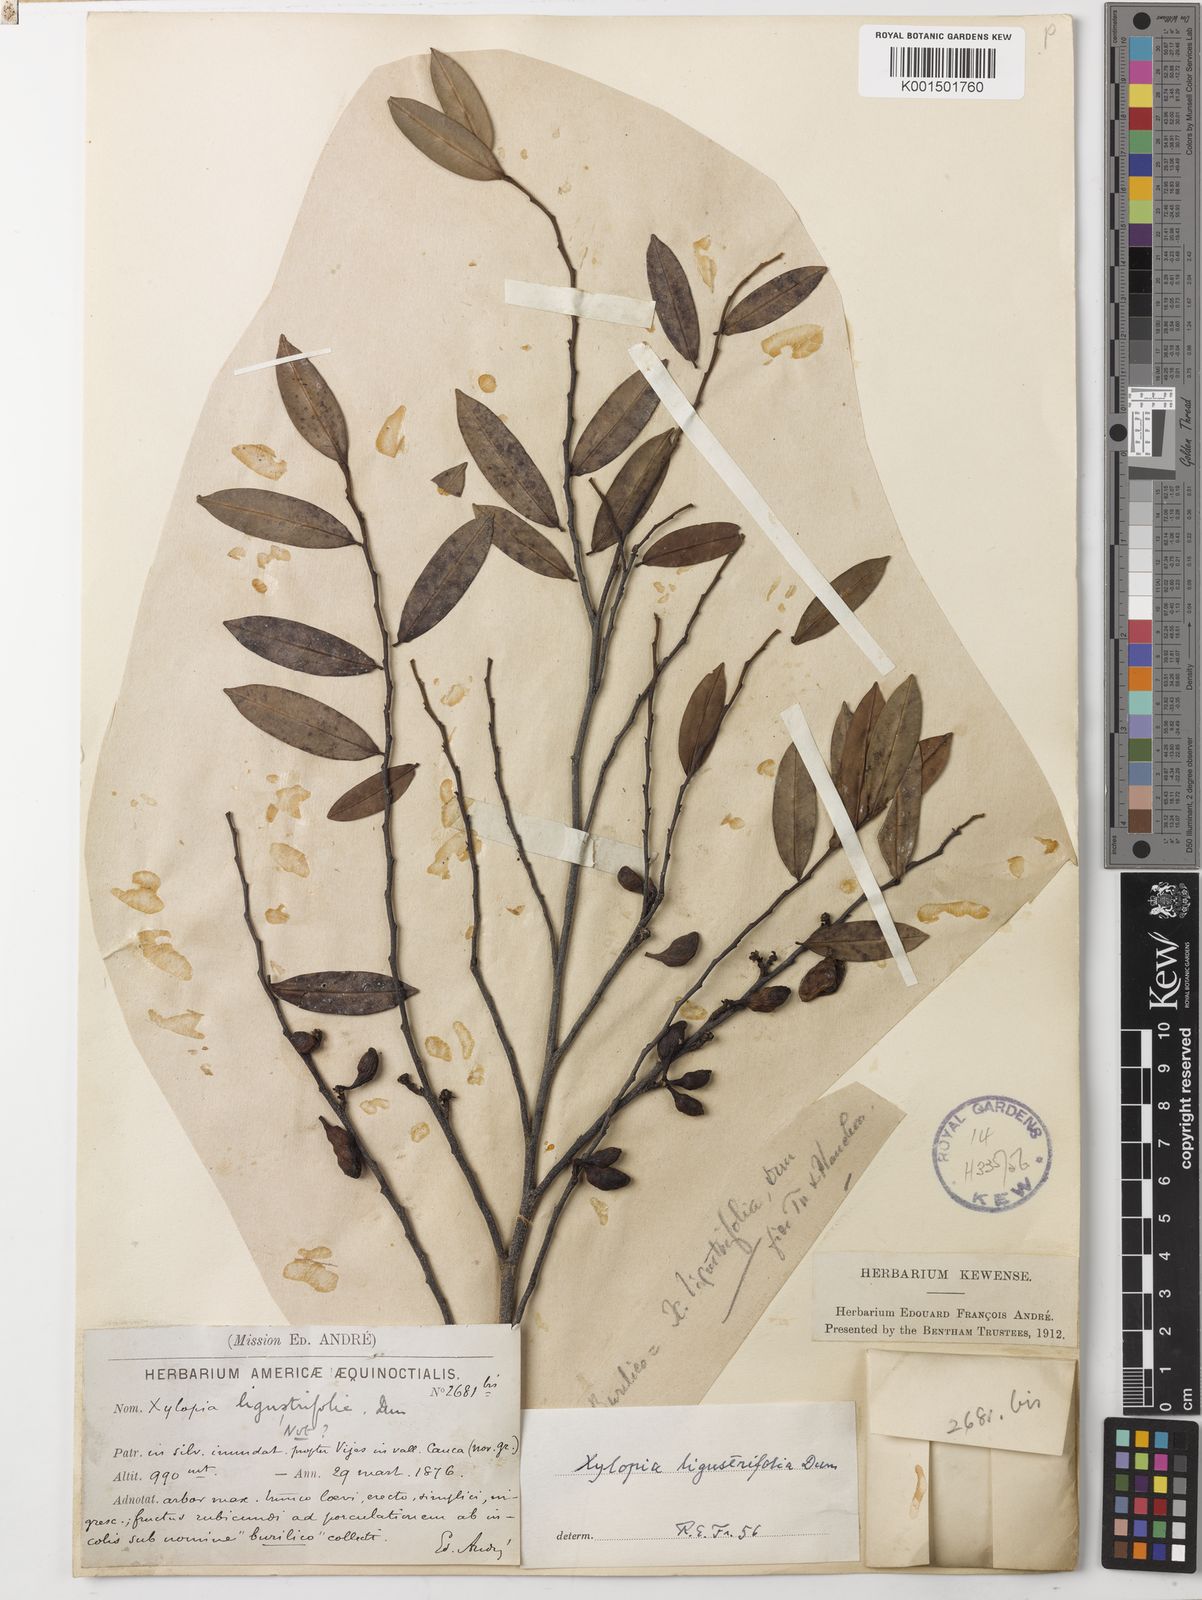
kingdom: Plantae
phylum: Tracheophyta
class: Magnoliopsida
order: Magnoliales
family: Annonaceae
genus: Xylopia
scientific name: Xylopia ligustrifolia
